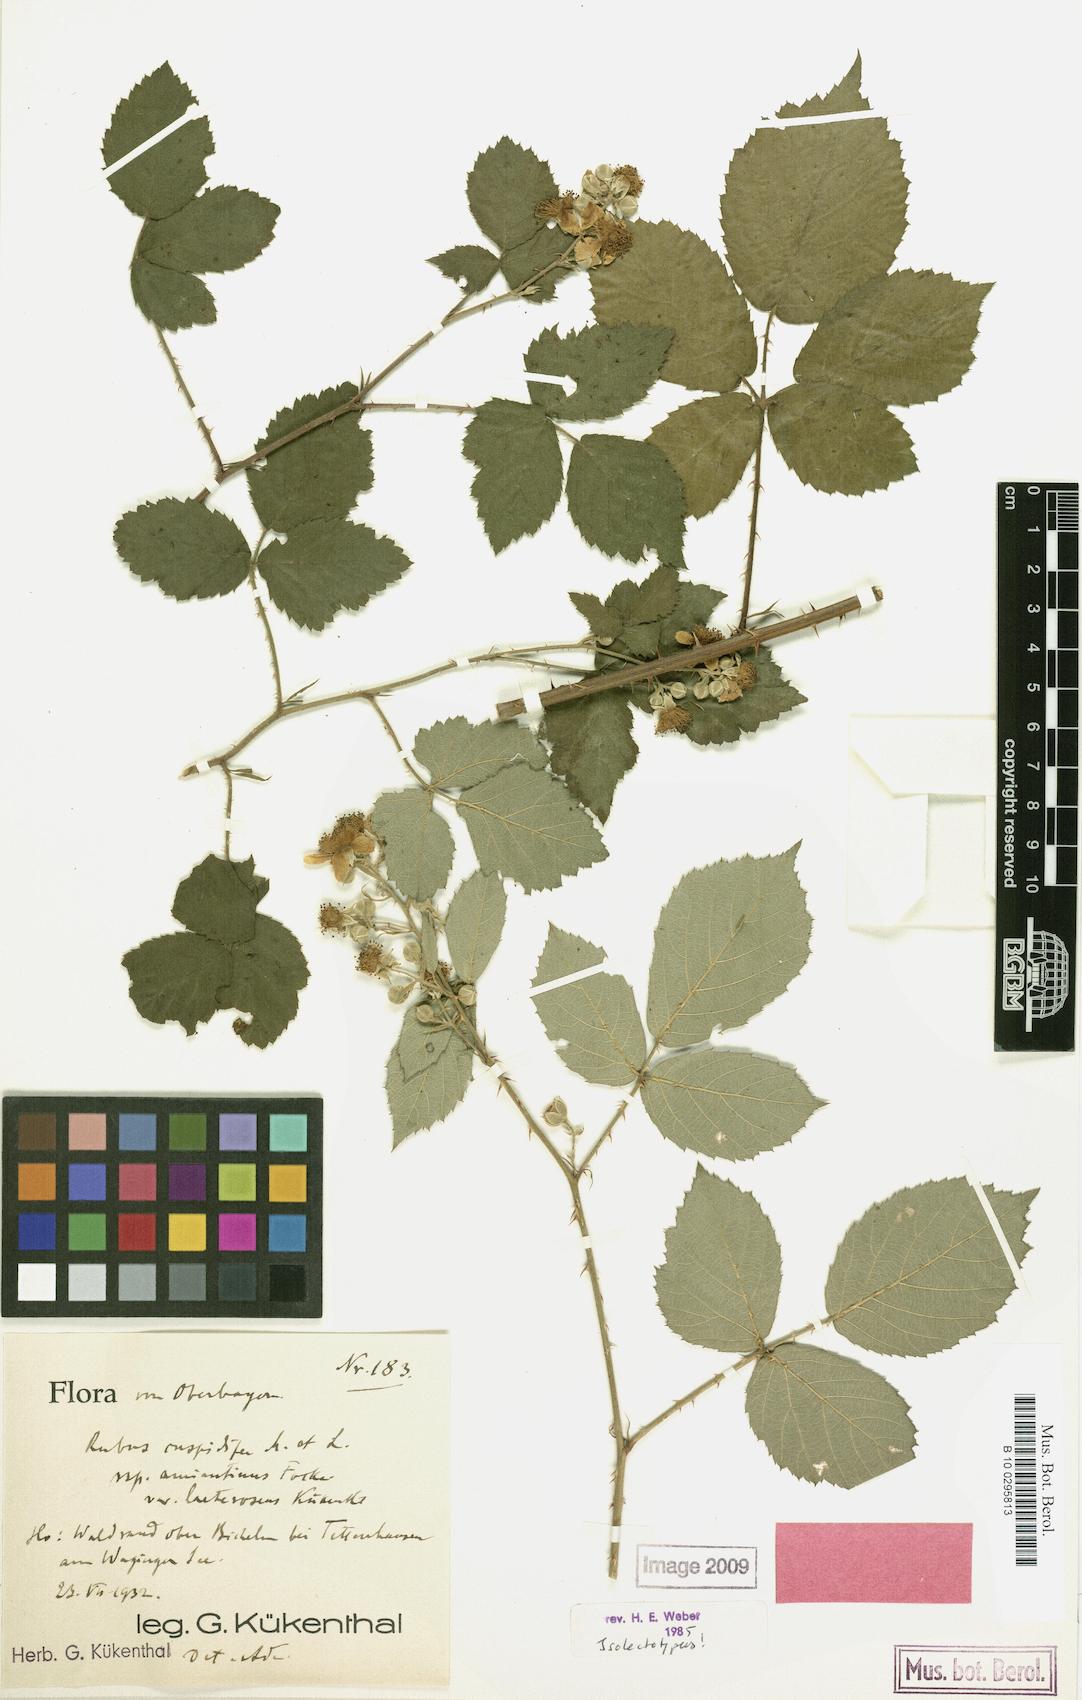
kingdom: Plantae
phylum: Tracheophyta
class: Magnoliopsida
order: Rosales
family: Rosaceae
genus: Rubus
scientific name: Rubus cuspidiferus
